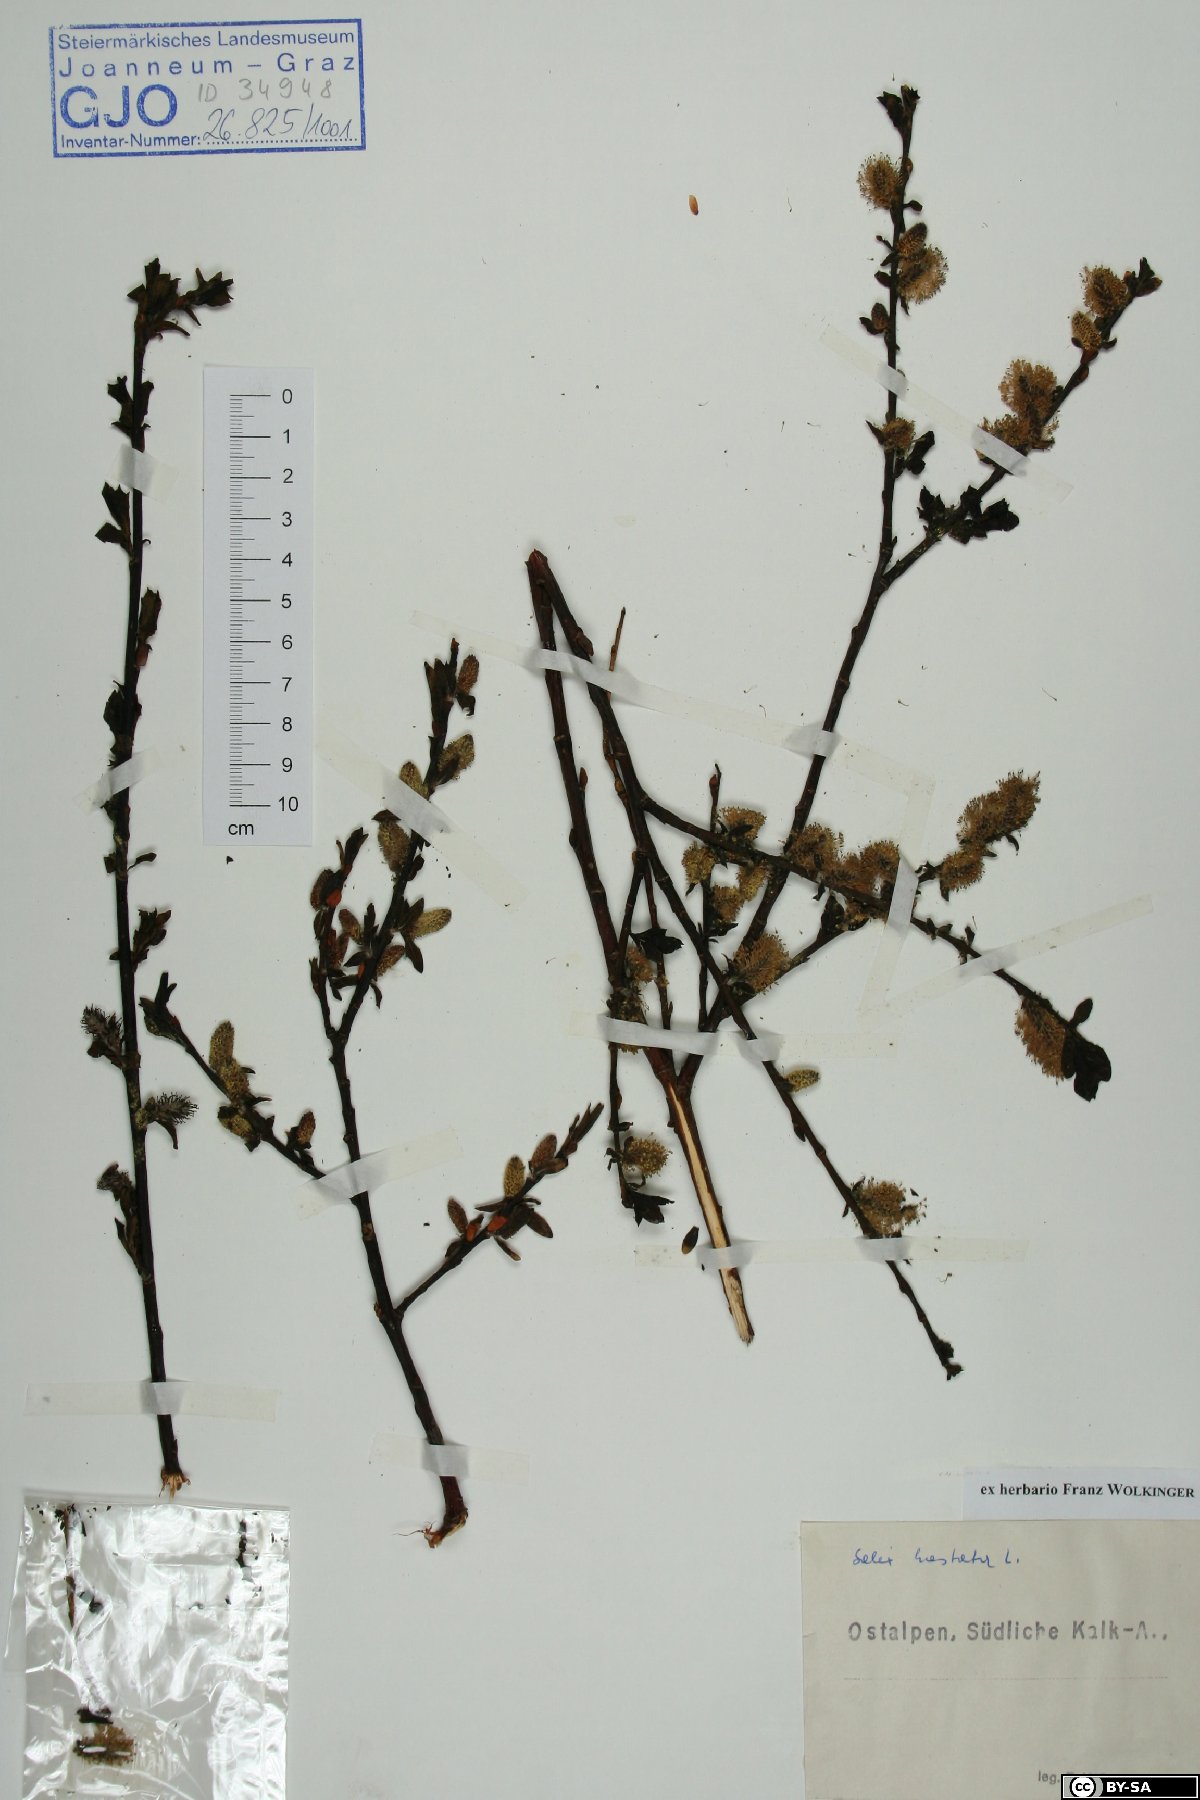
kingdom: Plantae
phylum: Tracheophyta
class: Magnoliopsida
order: Malpighiales
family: Salicaceae
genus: Salix
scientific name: Salix hastata
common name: Halberd willow
